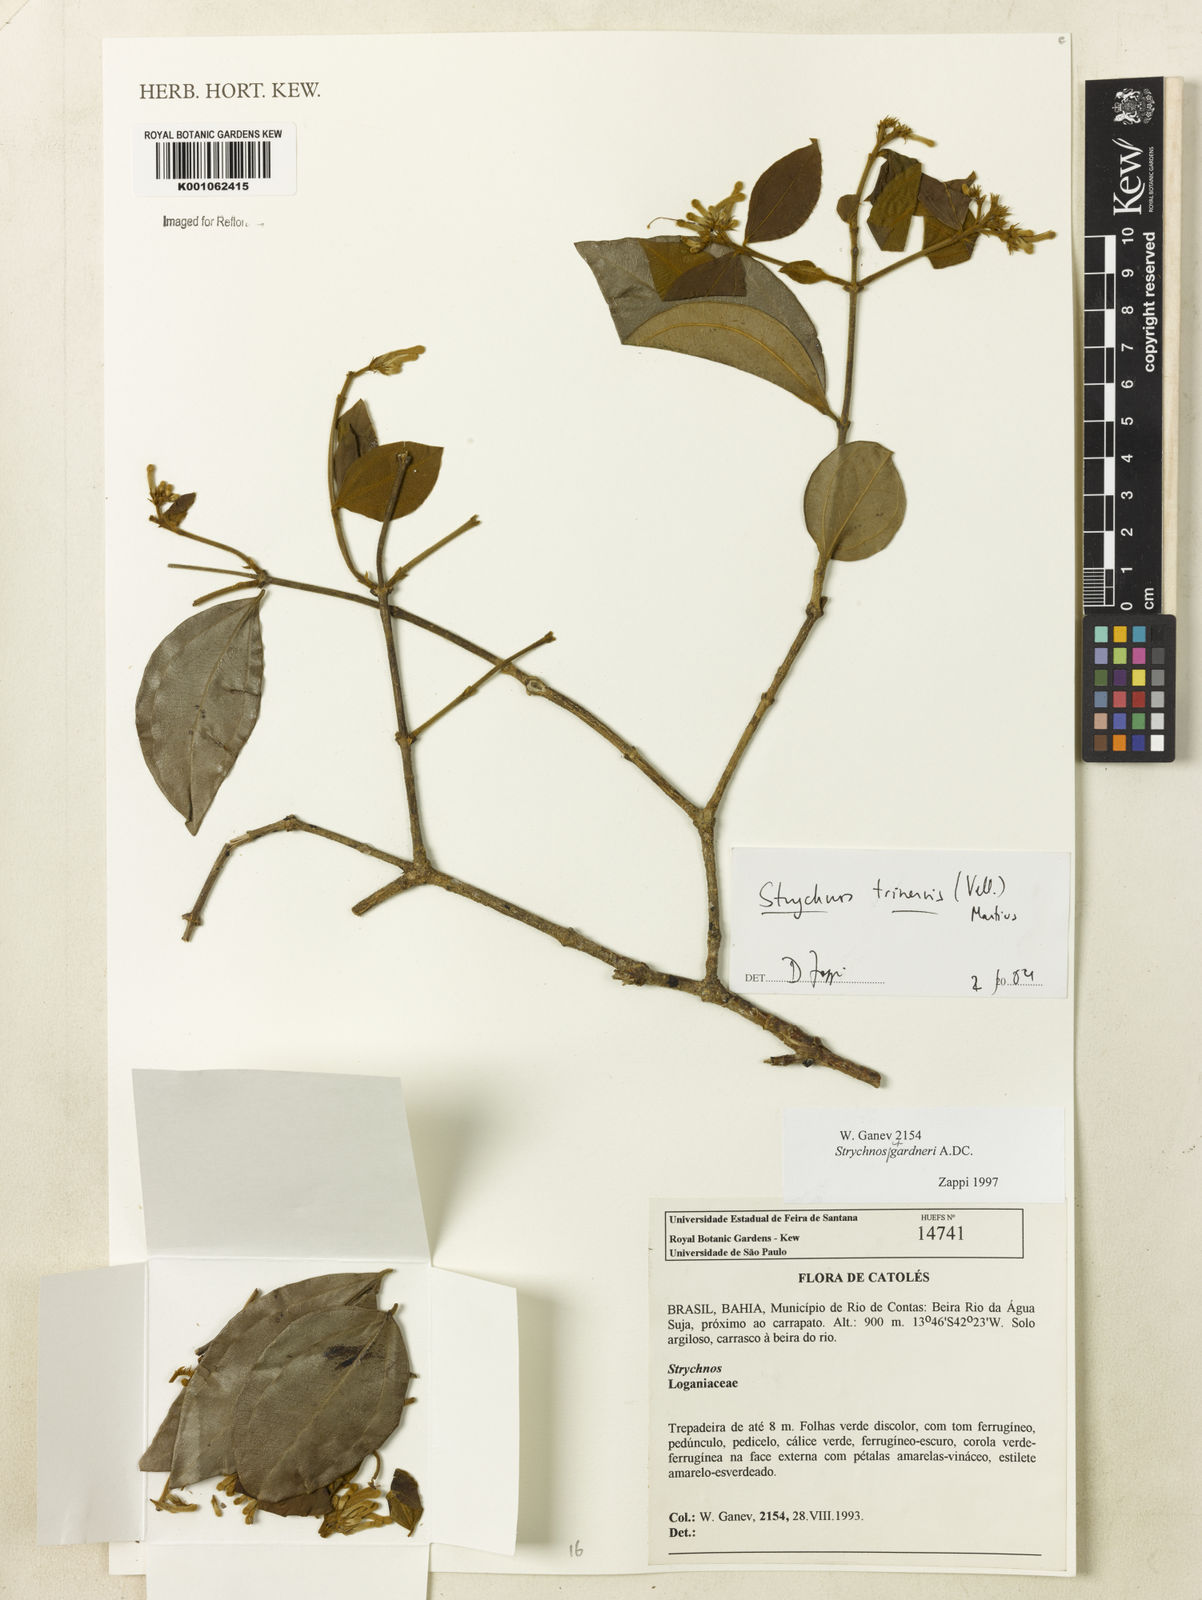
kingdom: Plantae
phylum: Tracheophyta
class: Magnoliopsida
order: Gentianales
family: Loganiaceae
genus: Strychnos
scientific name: Strychnos
